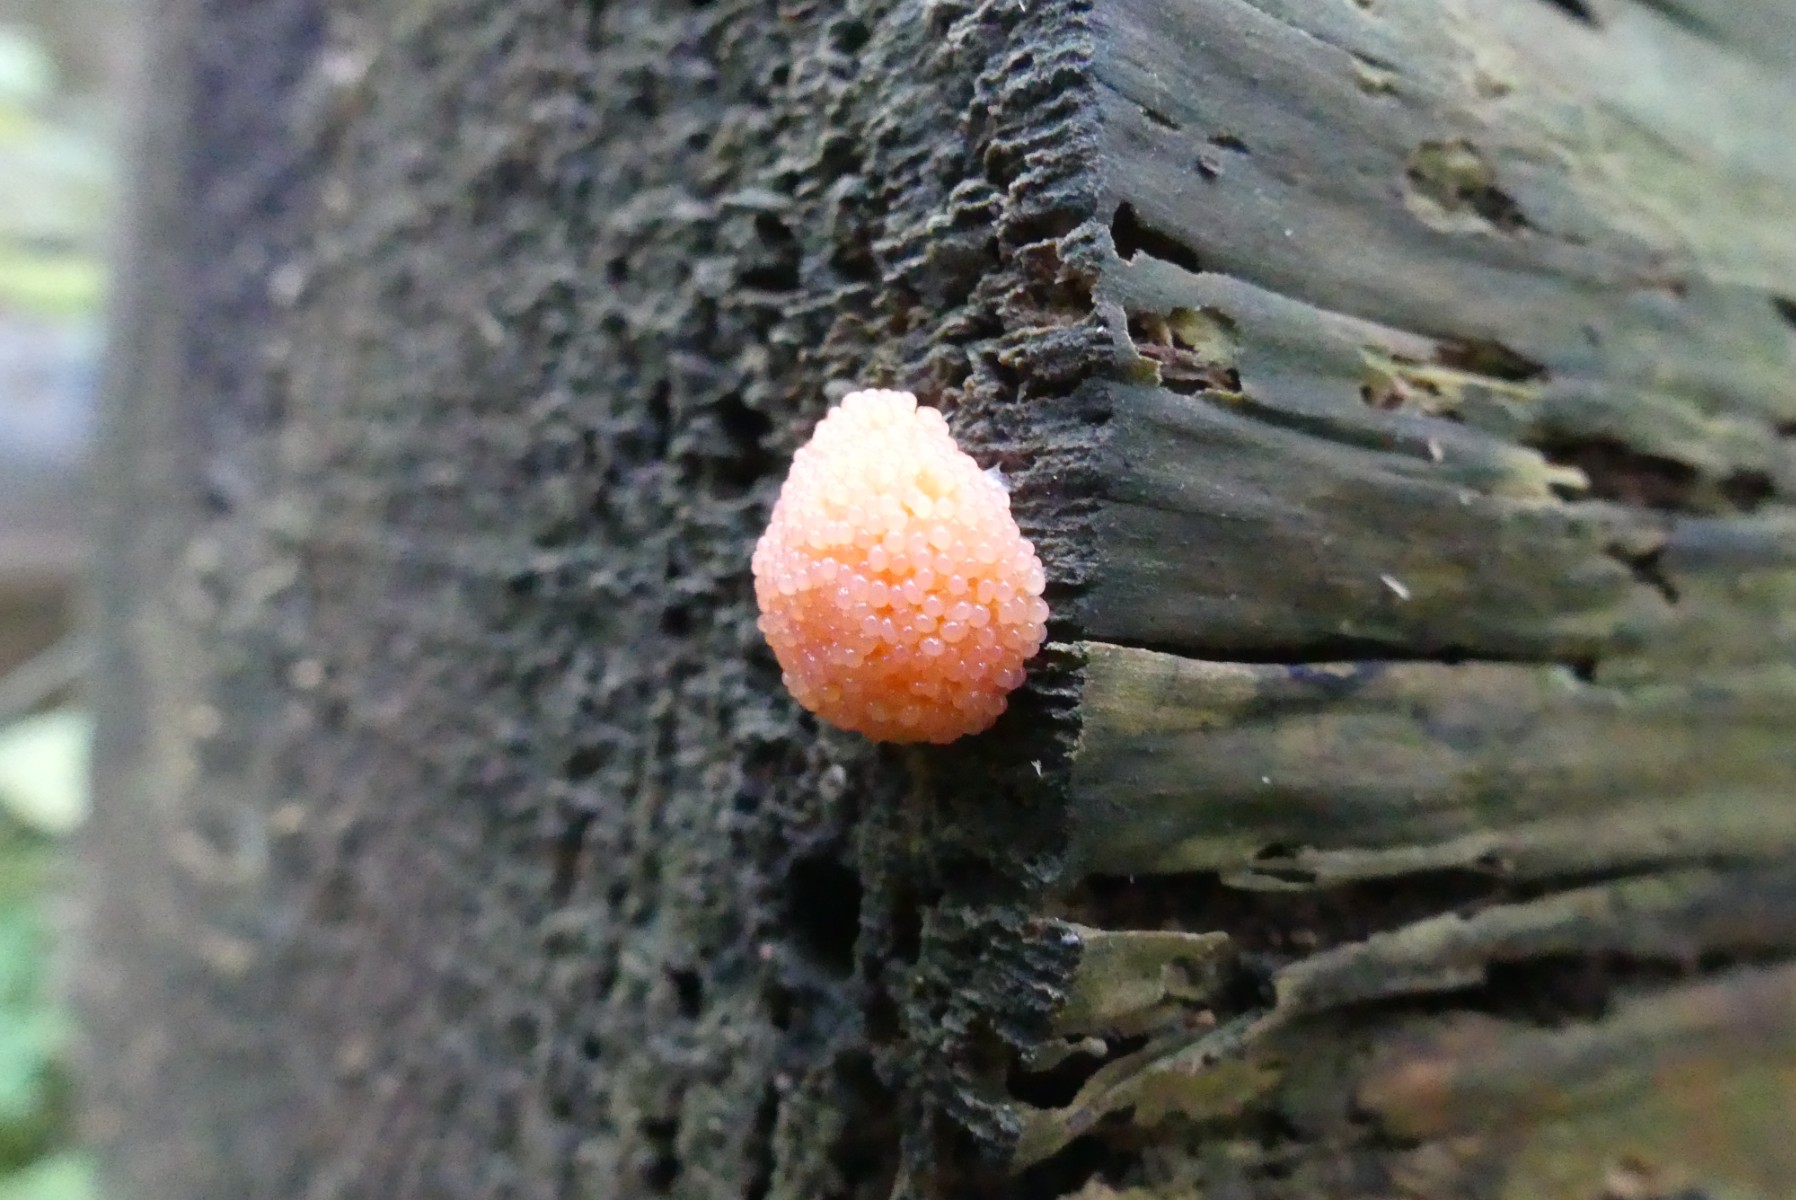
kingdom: Protozoa
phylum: Mycetozoa
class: Myxomycetes
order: Cribrariales
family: Tubiferaceae
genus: Tubifera
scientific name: Tubifera ferruginosa
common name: kanel-støvrør
